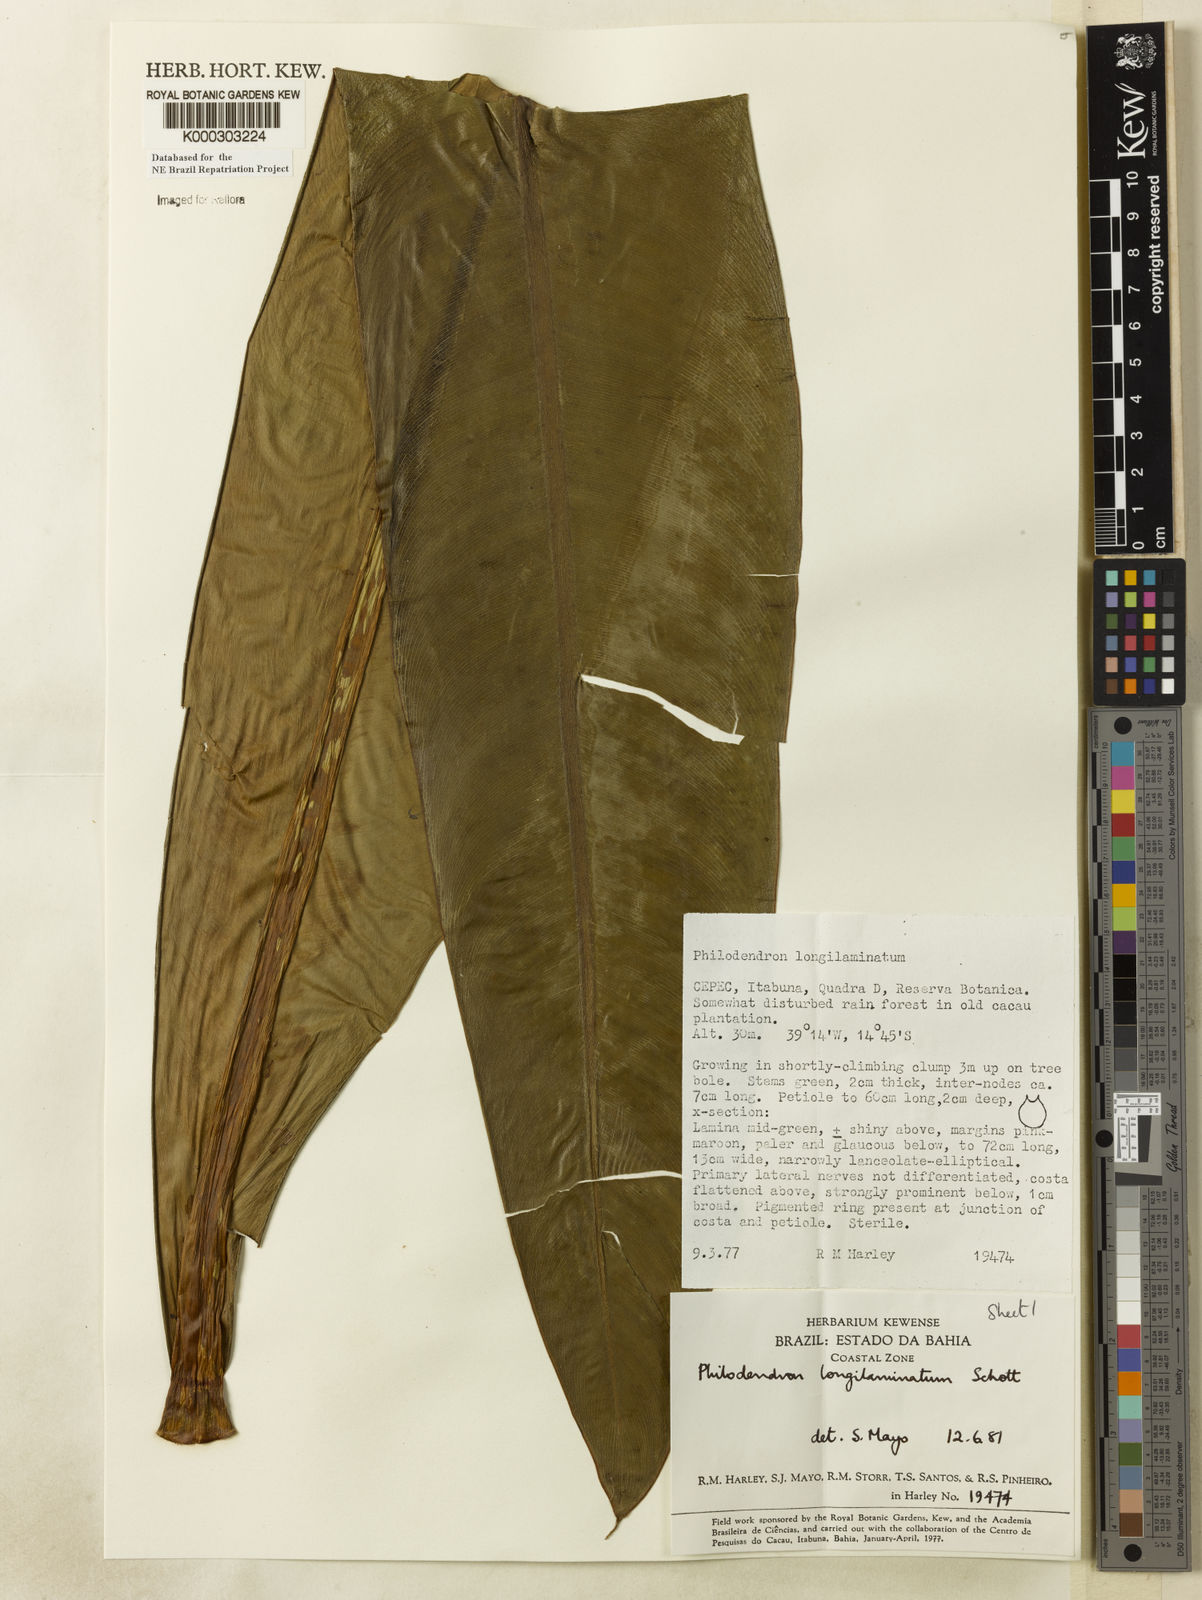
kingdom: Plantae
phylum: Tracheophyta
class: Liliopsida
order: Alismatales
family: Araceae
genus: Philodendron
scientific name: Philodendron longilaminatum
